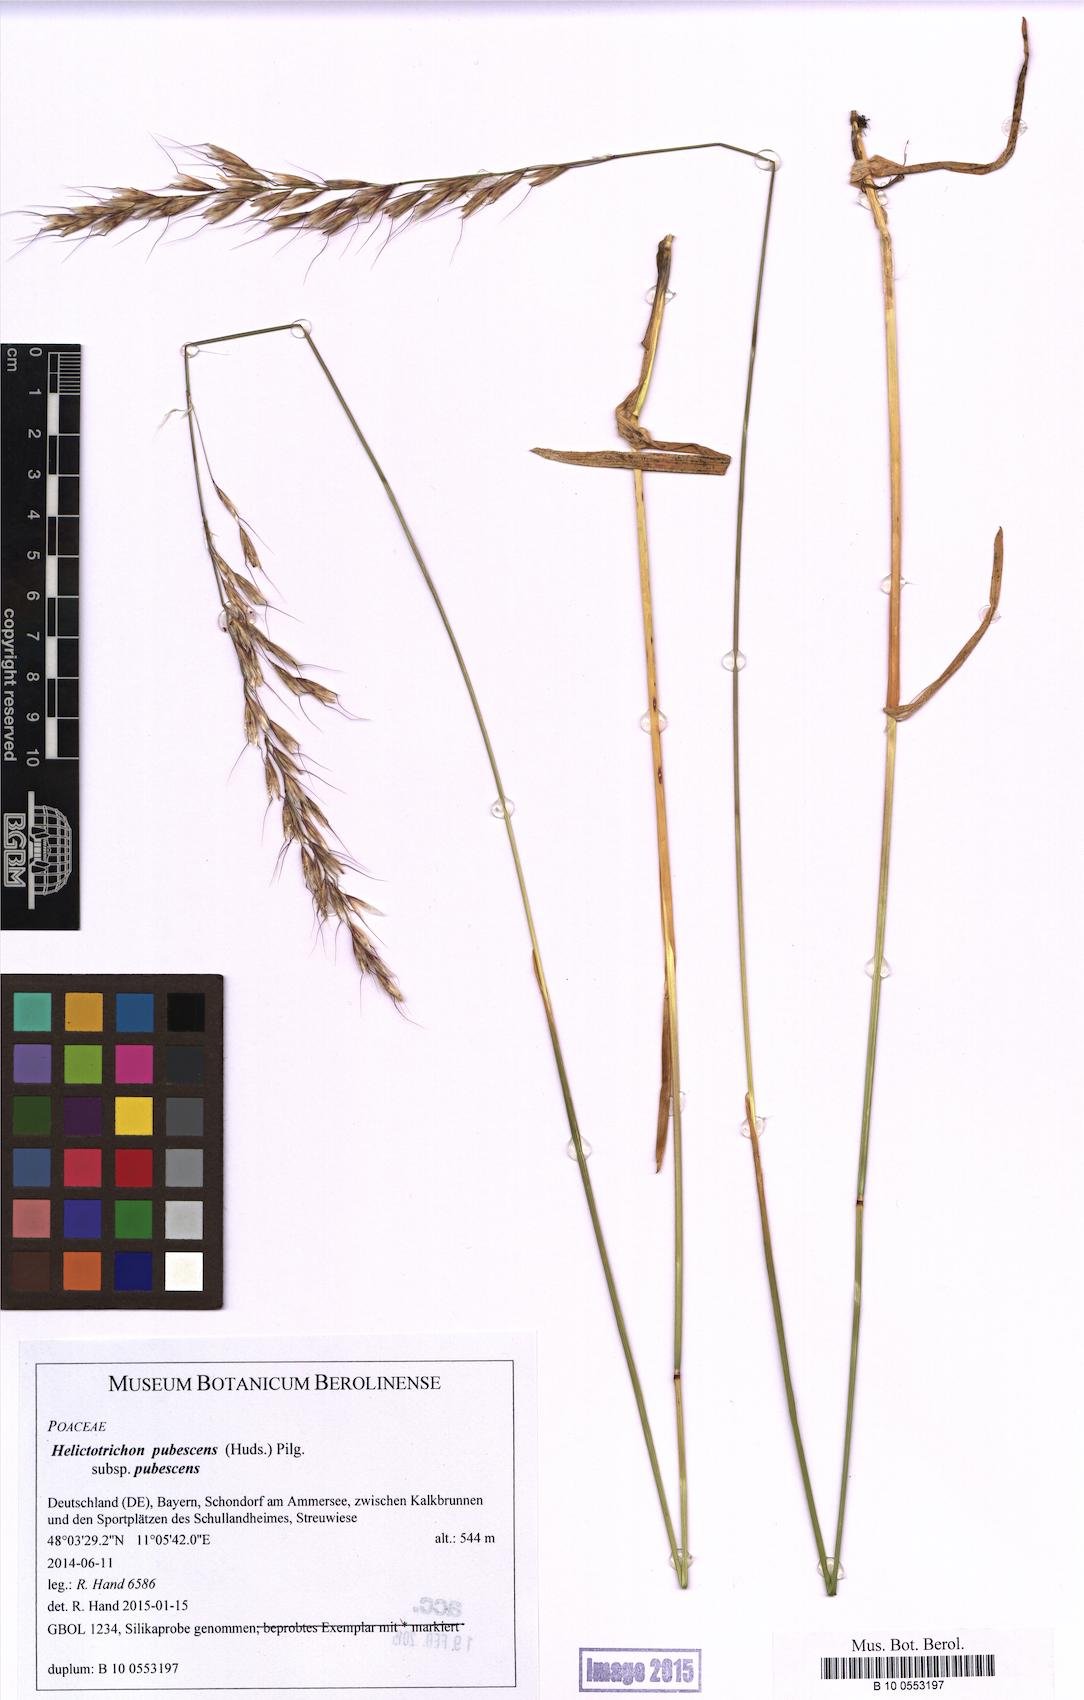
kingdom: Plantae
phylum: Tracheophyta
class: Liliopsida
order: Poales
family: Poaceae
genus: Avenula
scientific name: Avenula pubescens
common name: Downy alpine oatgrass
